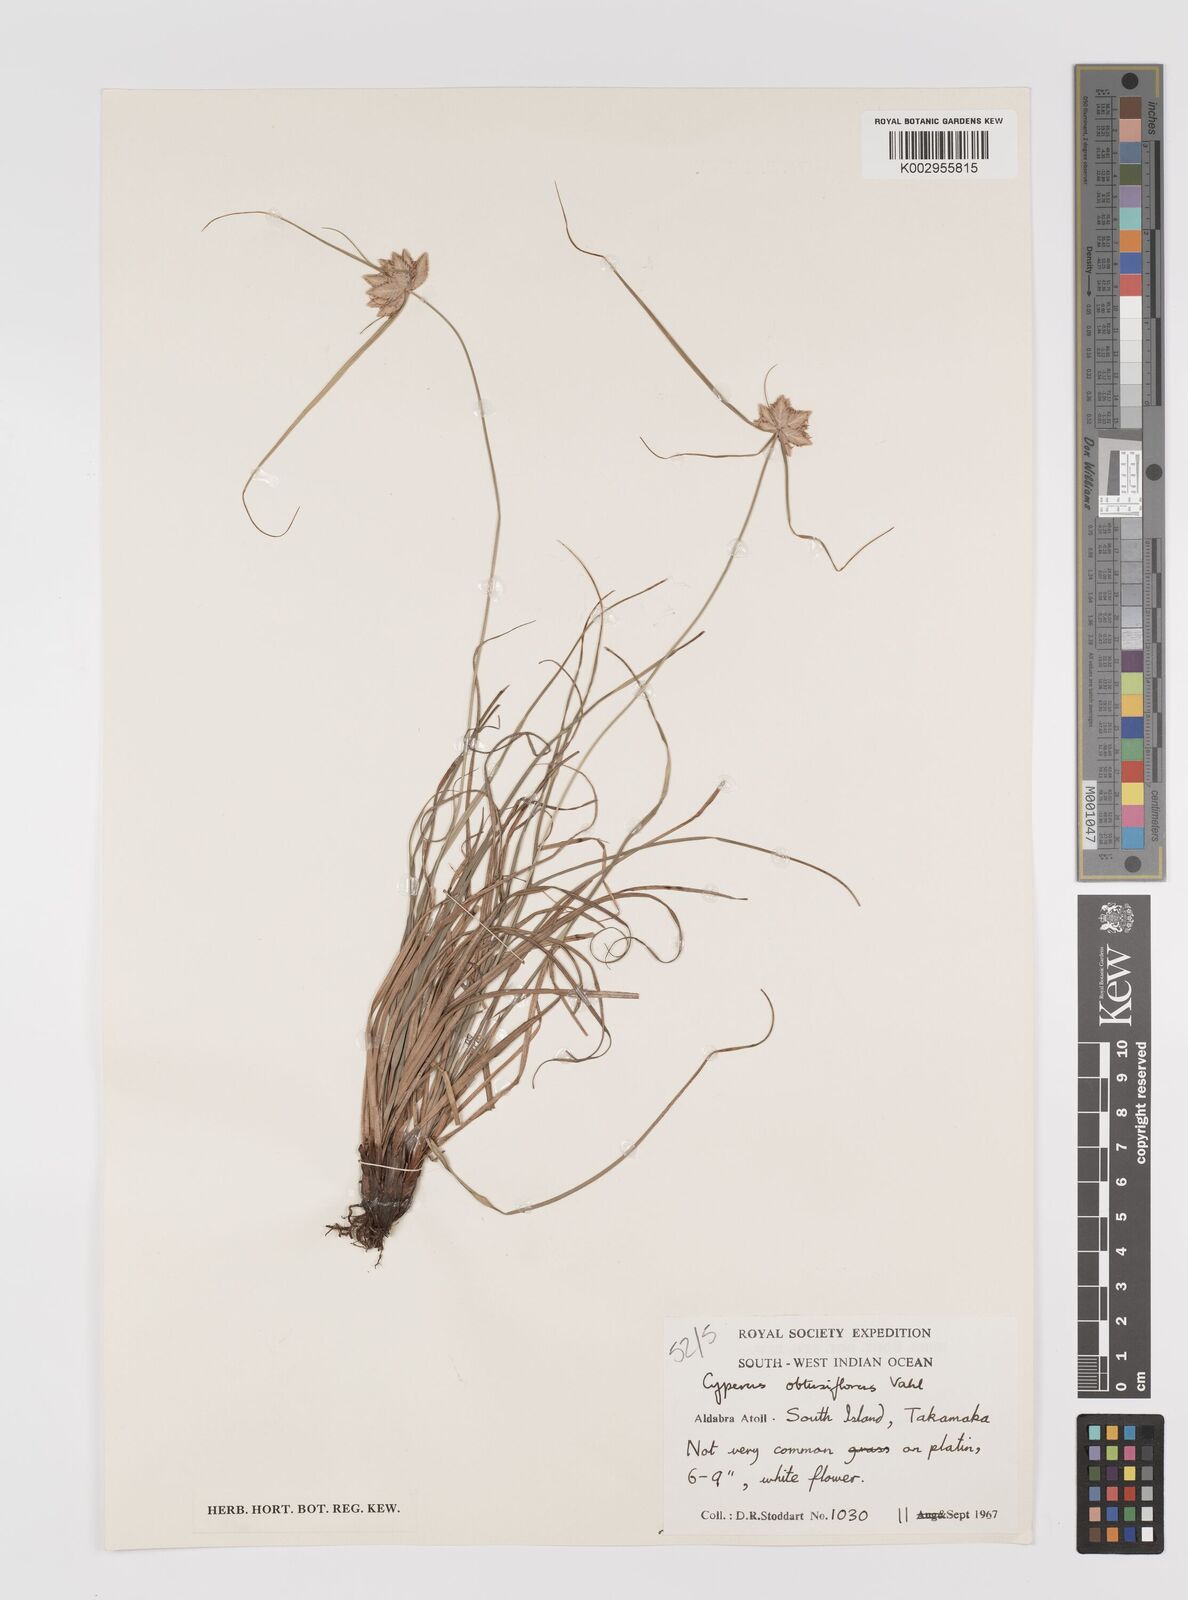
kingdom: Plantae
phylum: Tracheophyta
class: Liliopsida
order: Poales
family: Cyperaceae
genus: Cyperus
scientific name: Cyperus niveus
